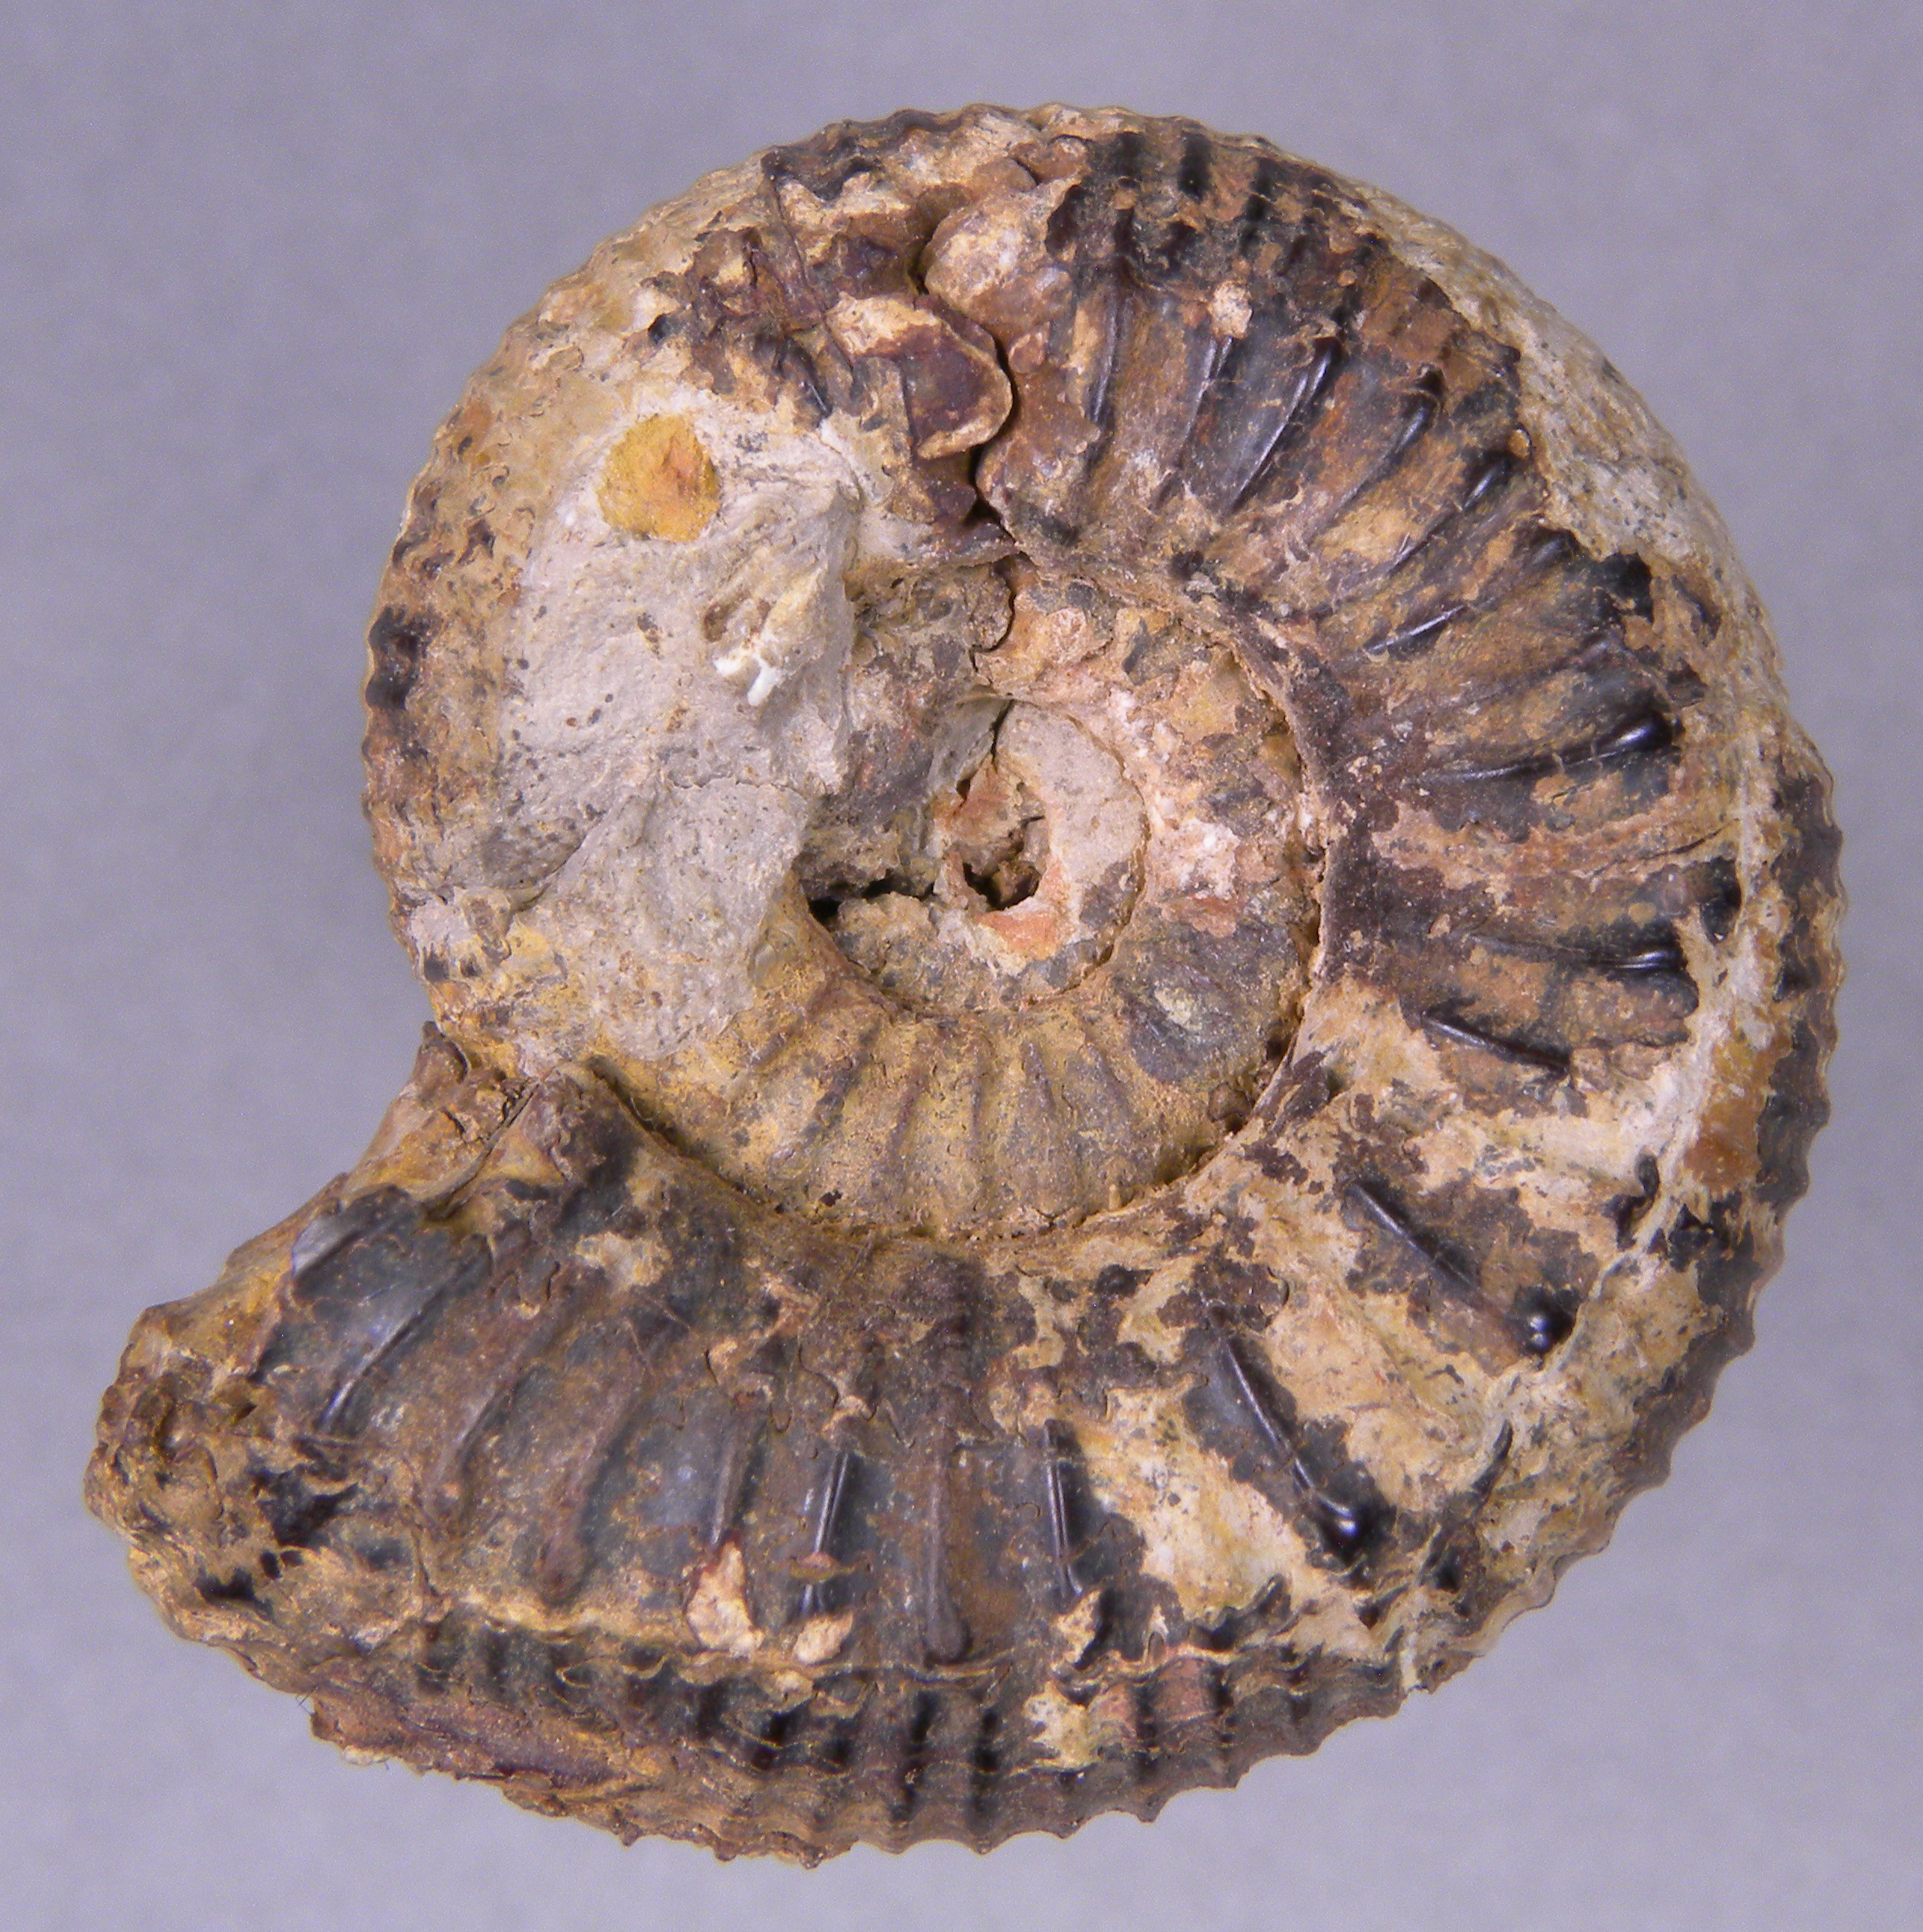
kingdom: Animalia
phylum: Mollusca
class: Cephalopoda
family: Dactylioceratidae
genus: Catacoeloceras
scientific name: Catacoeloceras crassum
